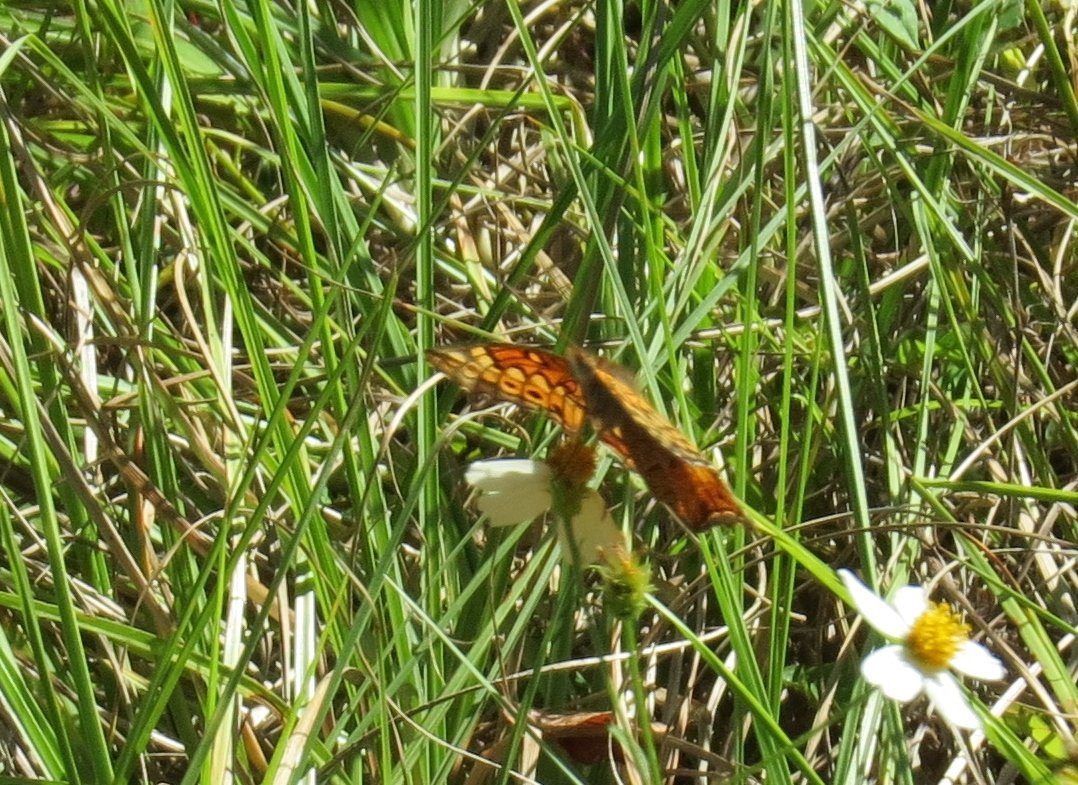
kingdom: Animalia
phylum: Arthropoda
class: Insecta
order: Lepidoptera
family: Nymphalidae
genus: Euptoieta
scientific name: Euptoieta claudia
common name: Variegated Fritillary
